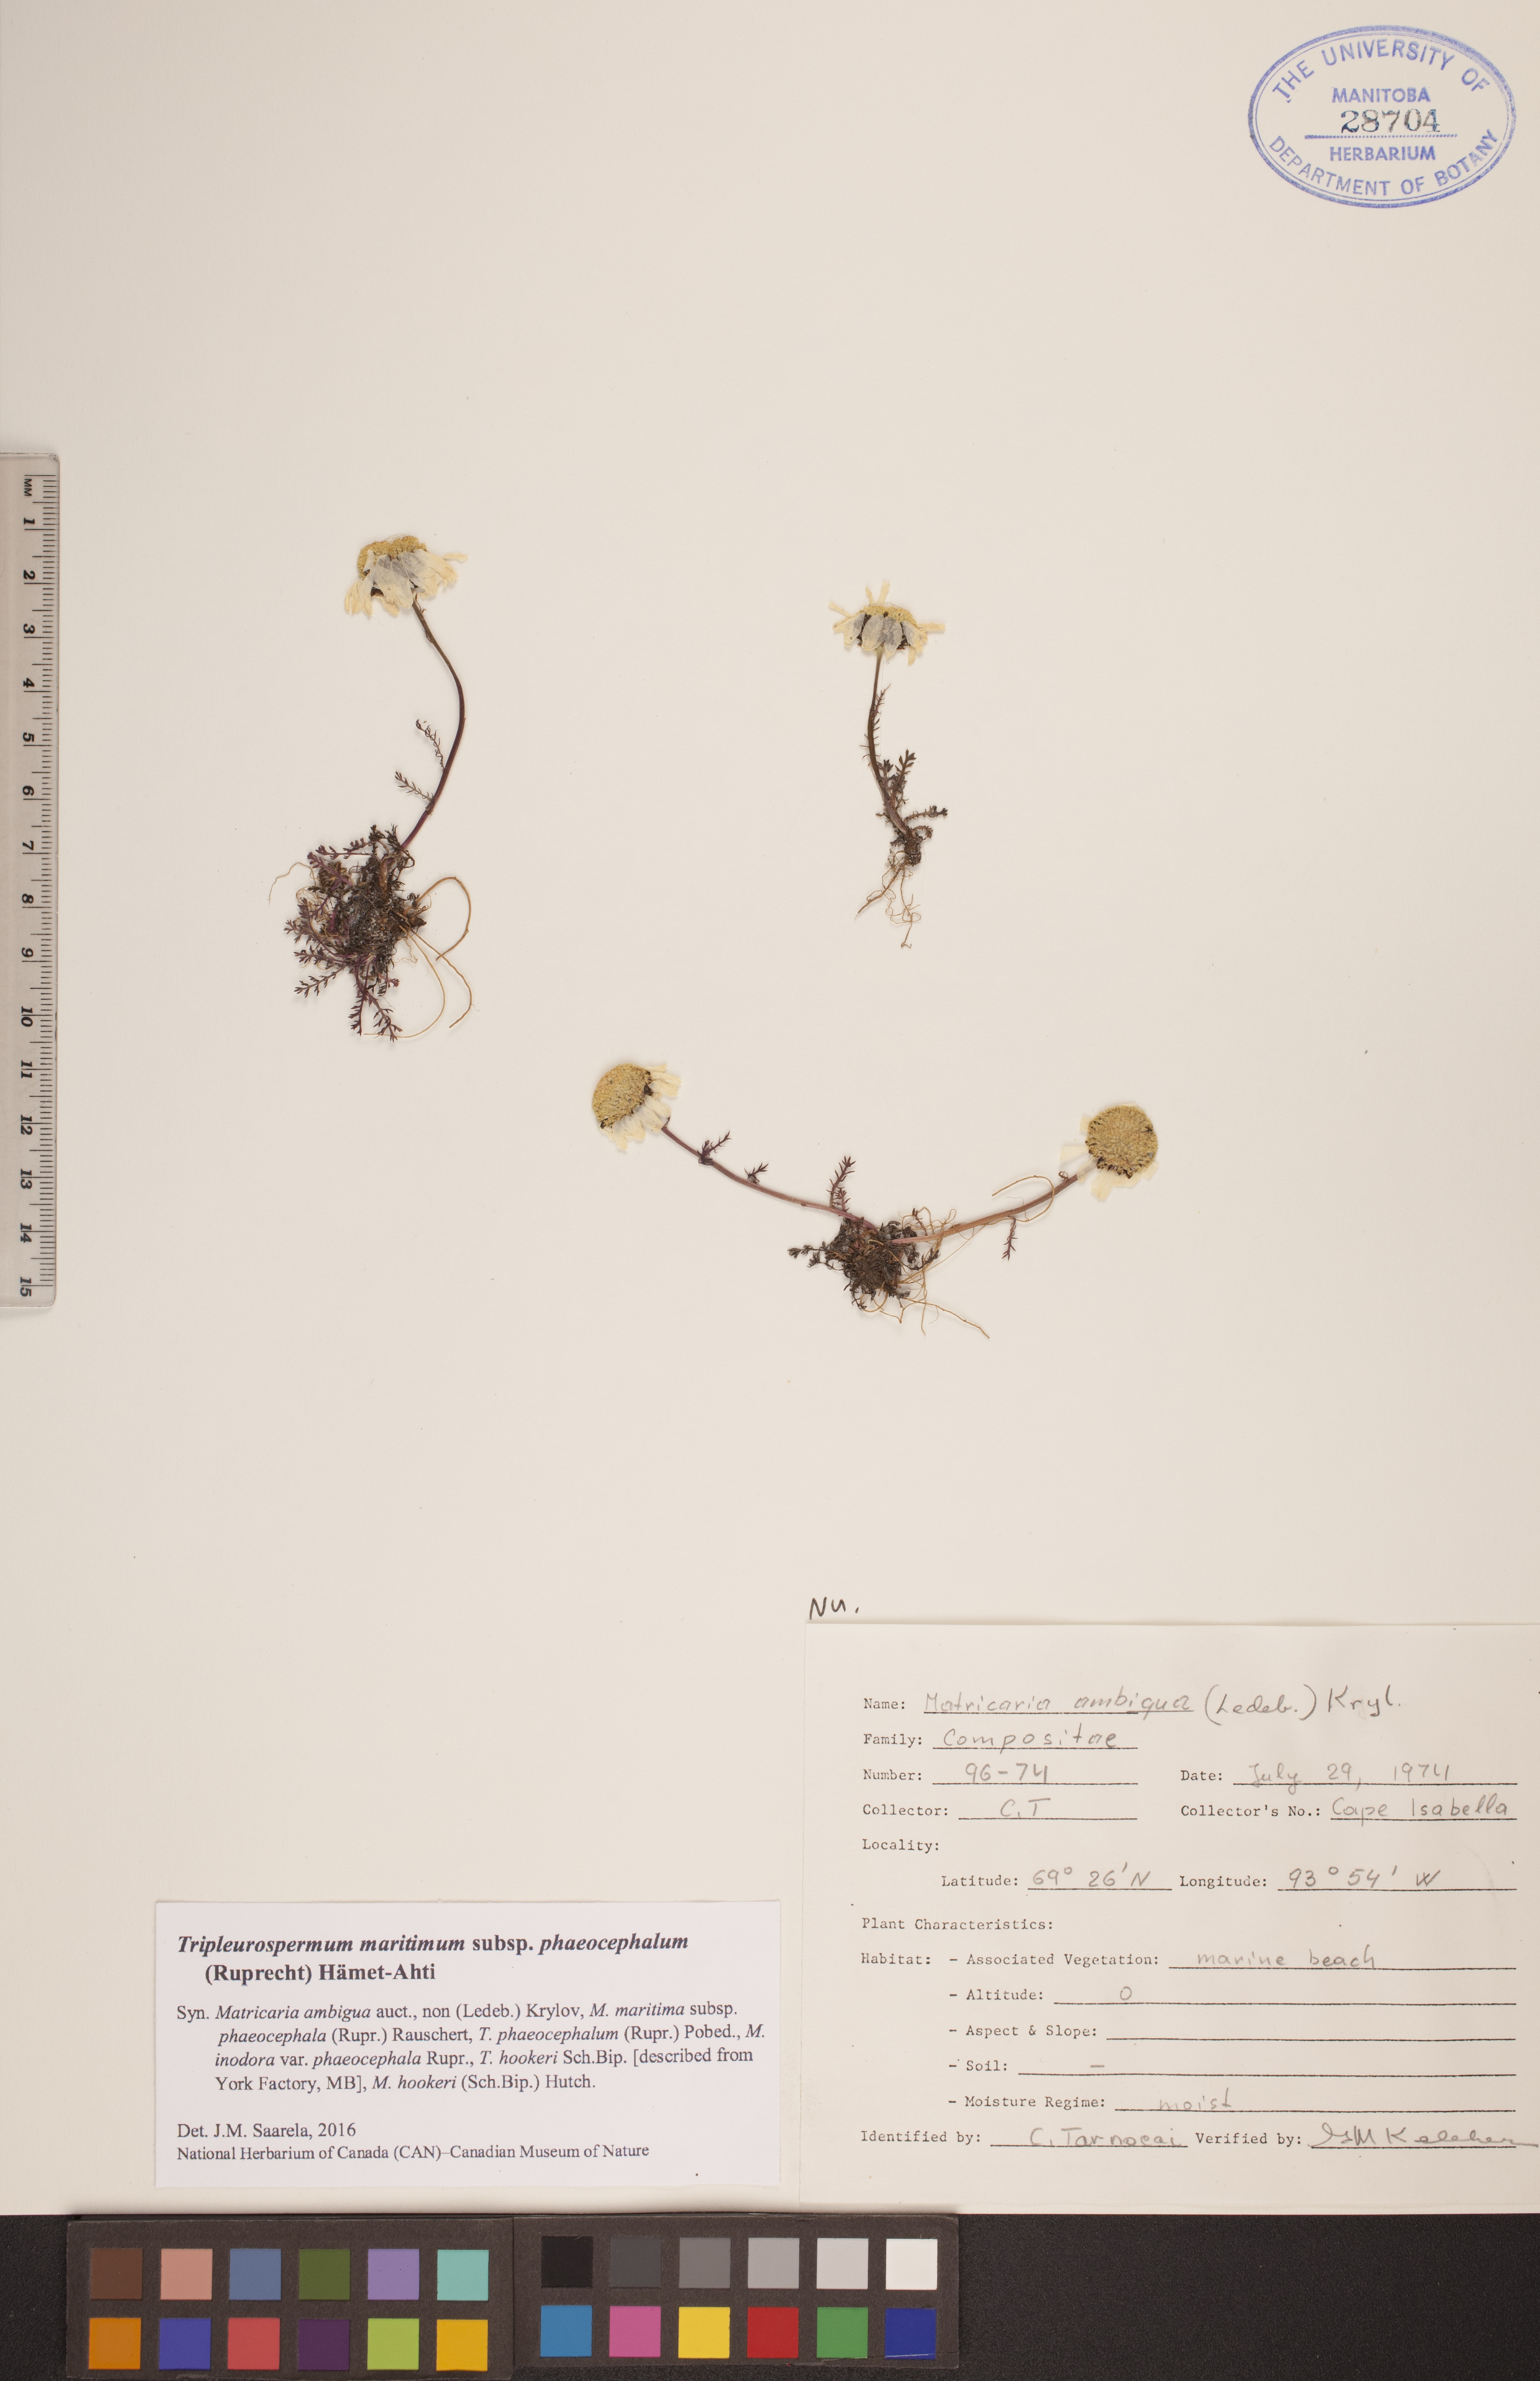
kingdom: Plantae
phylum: Tracheophyta
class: Magnoliopsida
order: Asterales
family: Asteraceae
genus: Tripleurospermum
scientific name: Tripleurospermum hookeri
